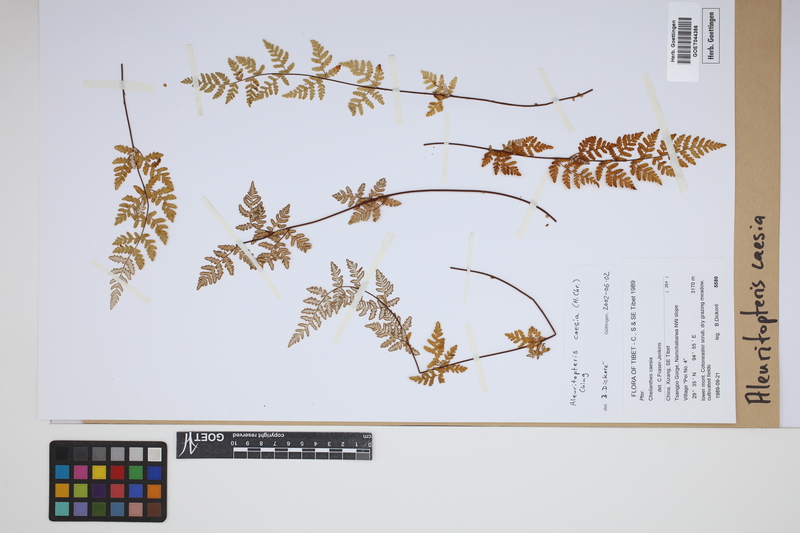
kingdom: Plantae
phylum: Tracheophyta
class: Polypodiopsida
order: Polypodiales
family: Pteridaceae
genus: Oeosporangium
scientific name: Oeosporangium kuhnii
